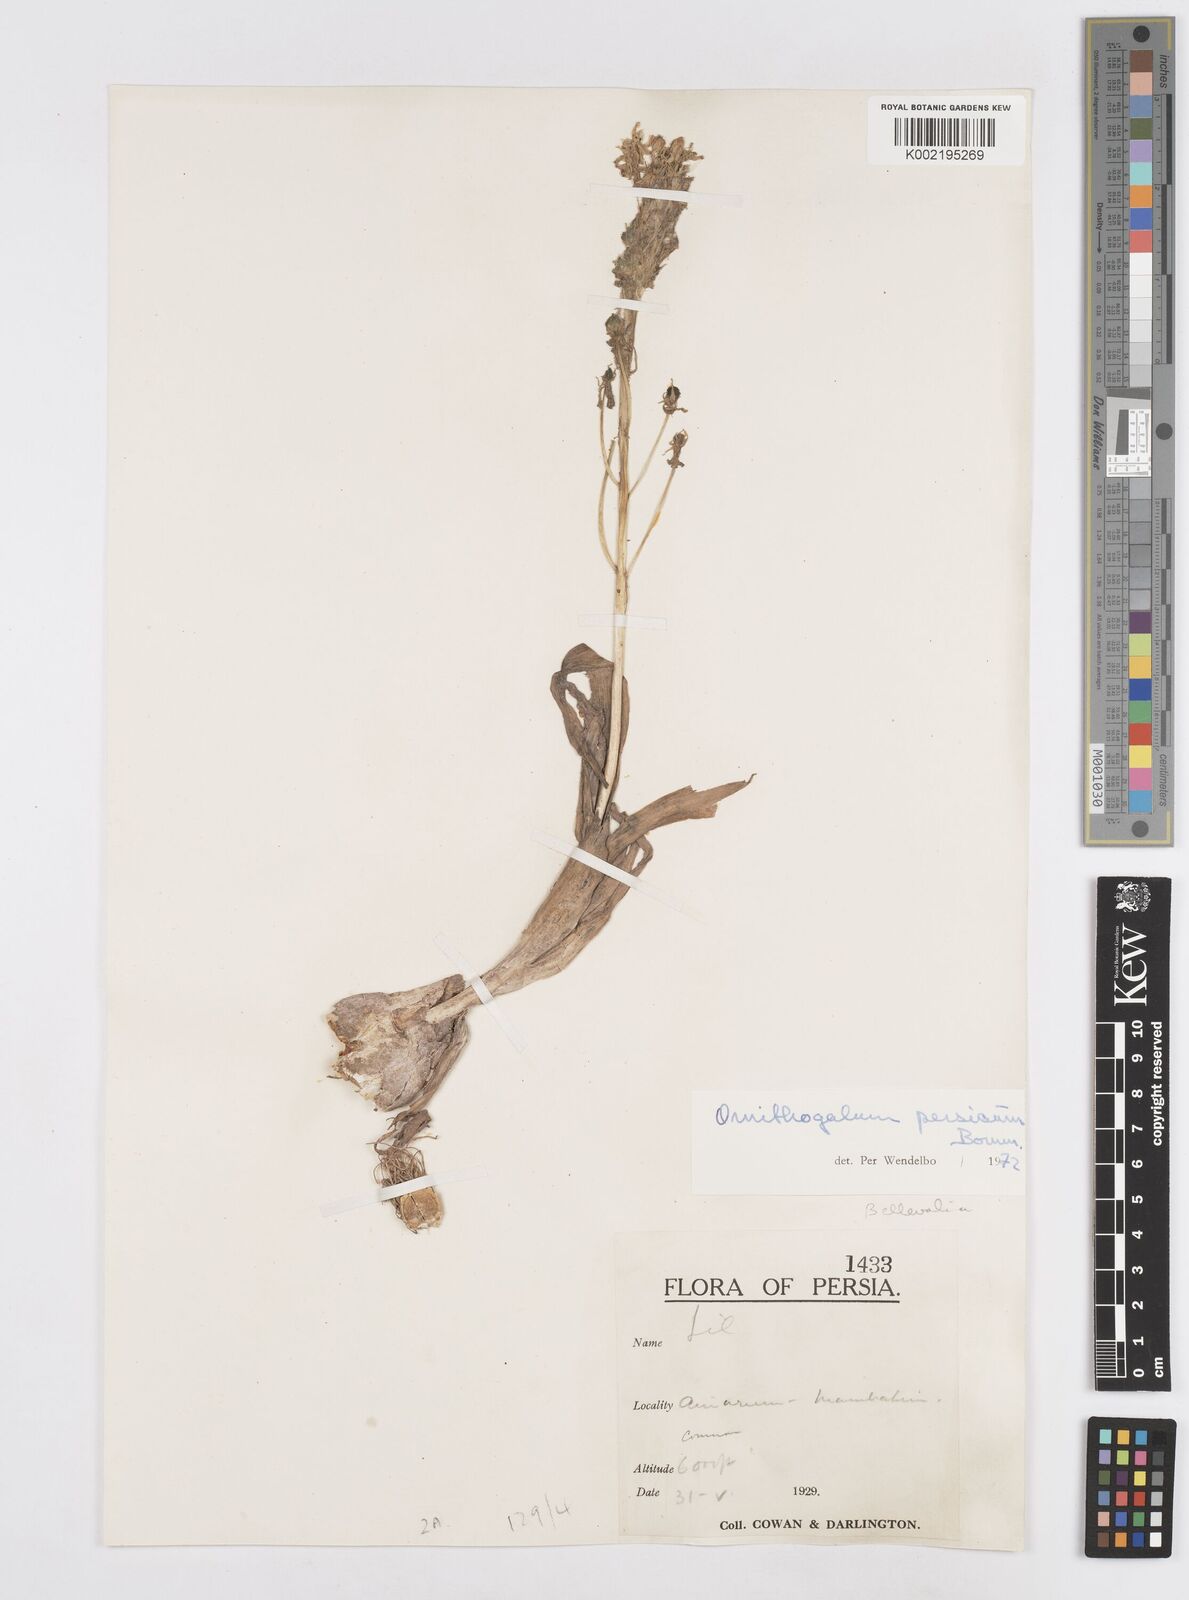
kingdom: Plantae
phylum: Tracheophyta
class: Liliopsida
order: Asparagales
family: Asparagaceae
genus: Ornithogalum
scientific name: Ornithogalum persicum
